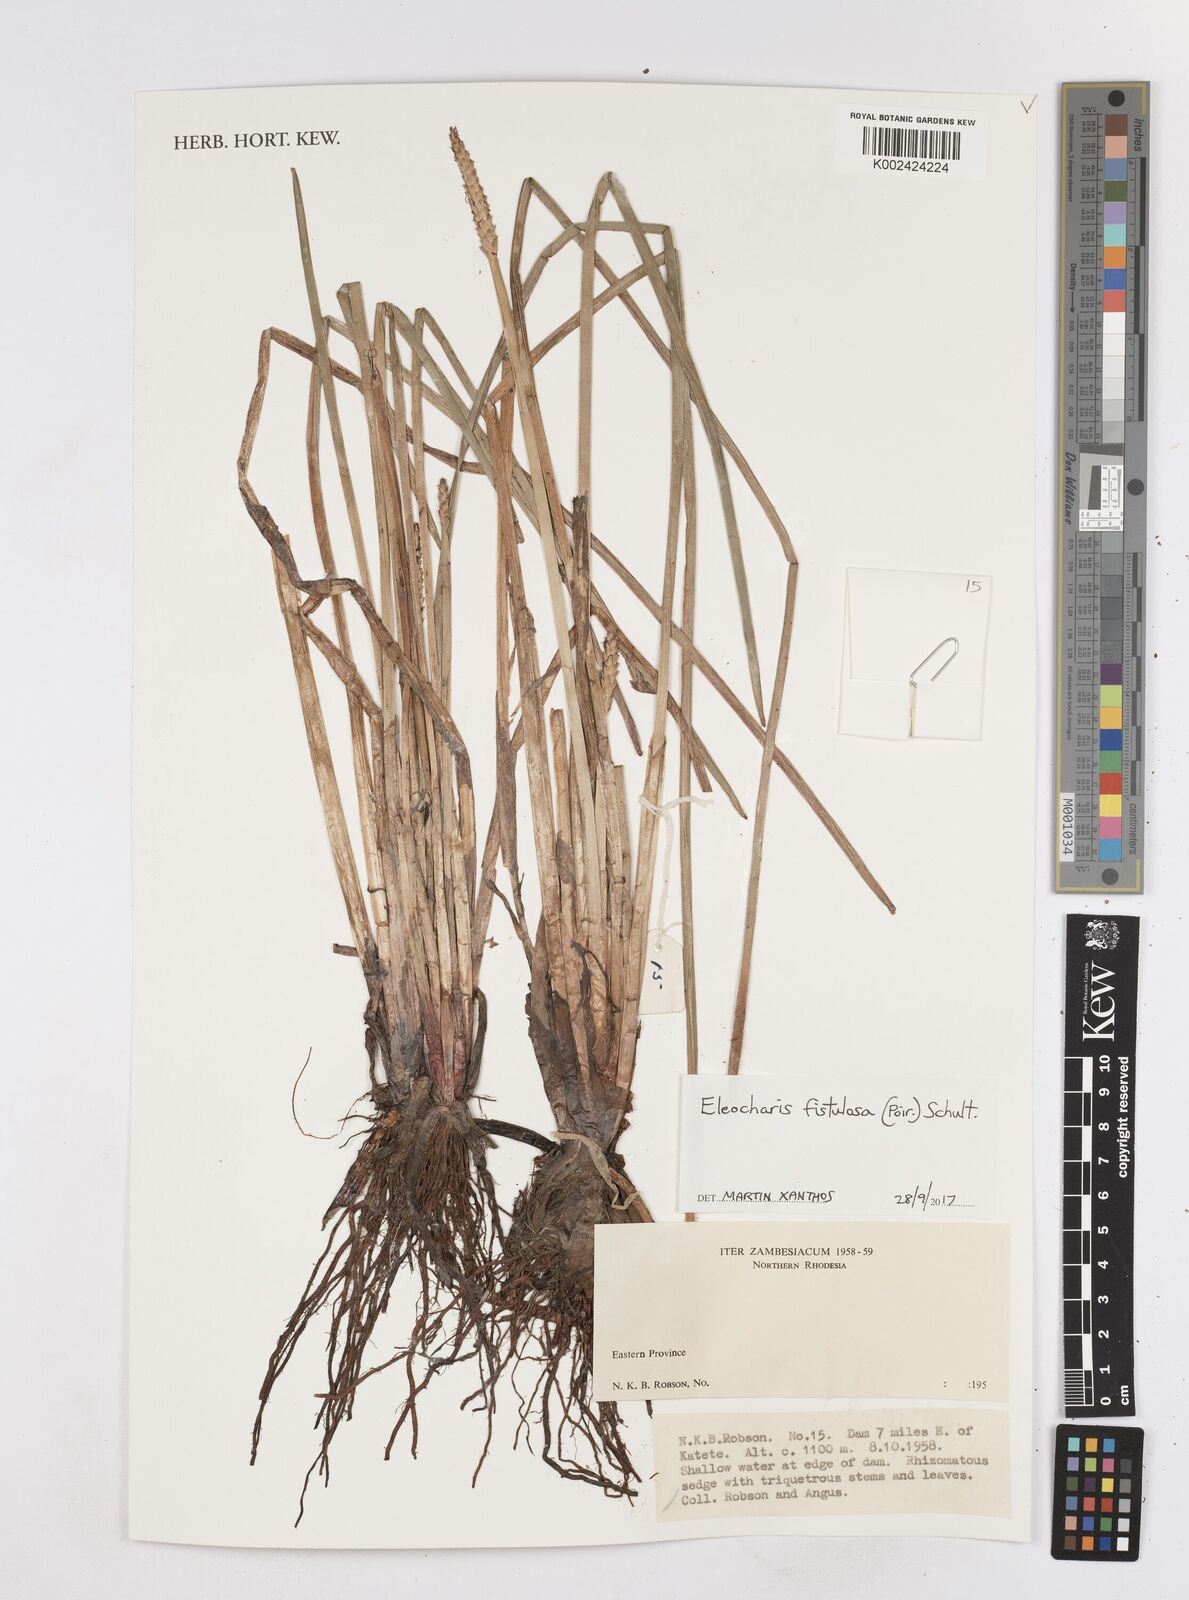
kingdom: Plantae
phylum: Tracheophyta
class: Liliopsida
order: Poales
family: Cyperaceae
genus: Eleocharis
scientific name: Eleocharis acutangula
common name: Acute spikerush
